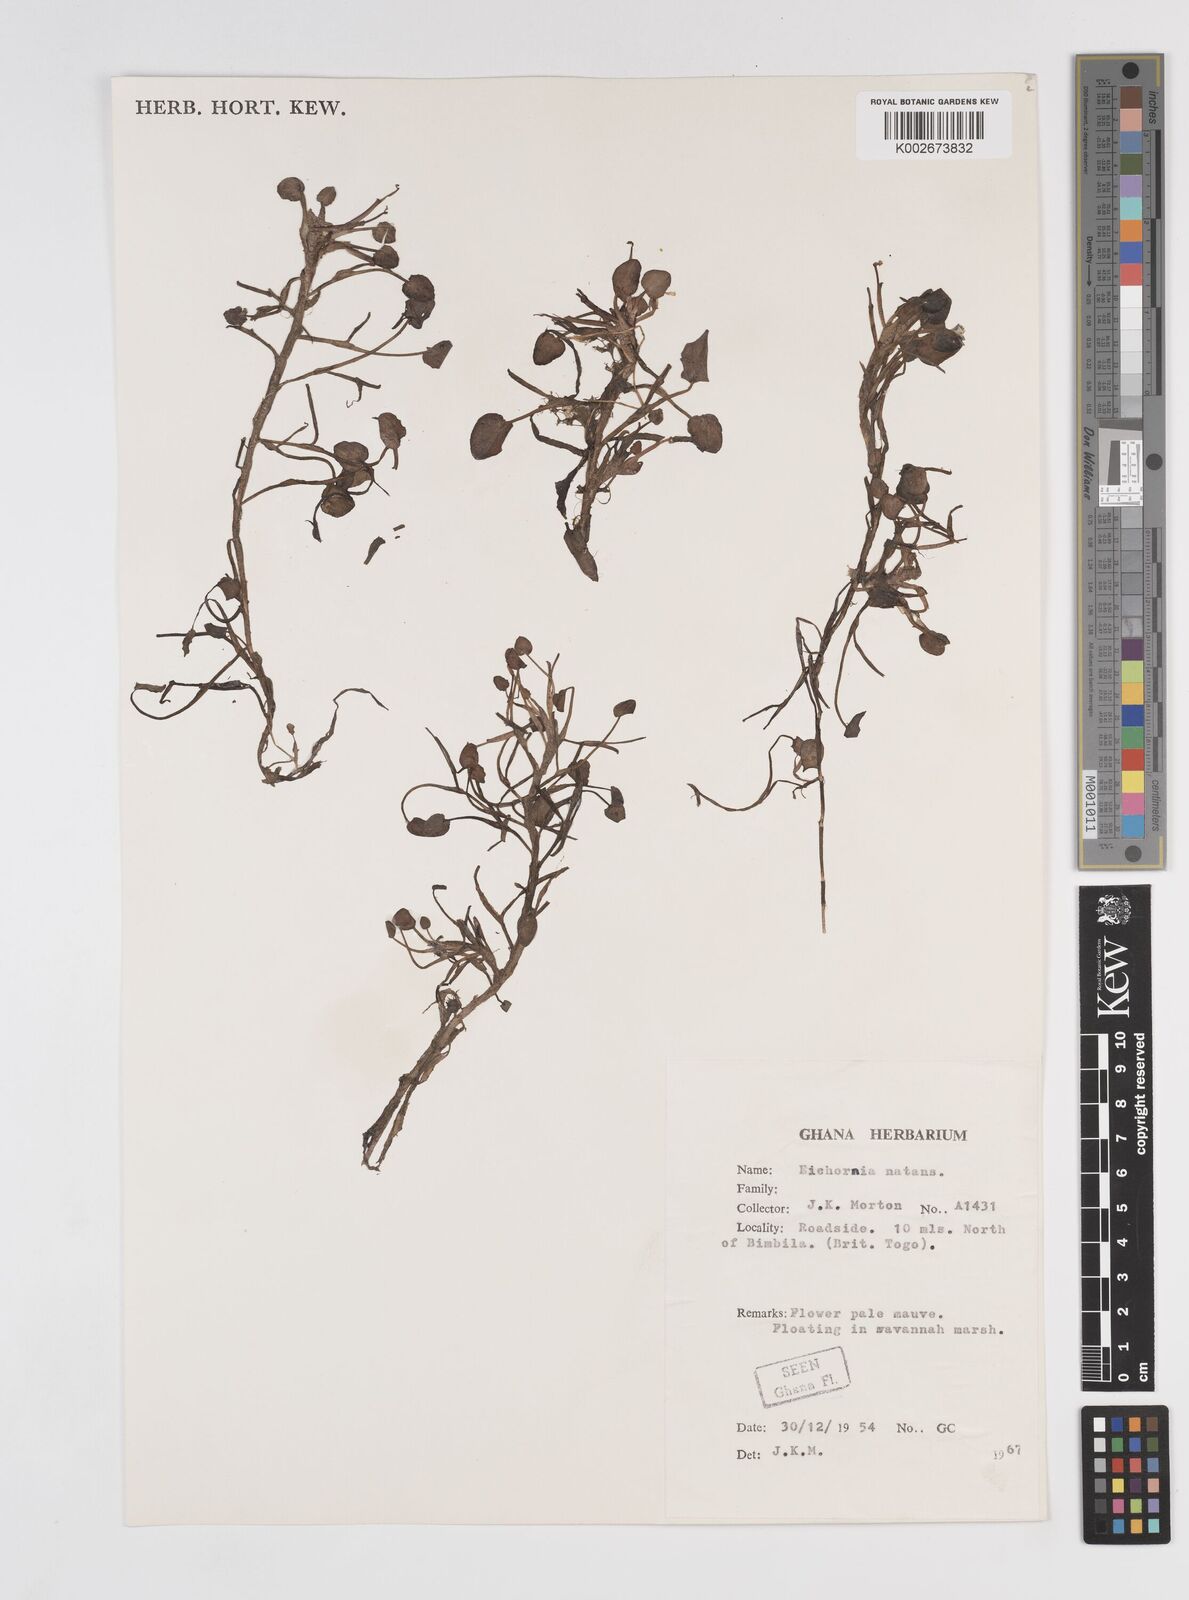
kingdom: Plantae
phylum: Tracheophyta
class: Liliopsida
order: Commelinales
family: Pontederiaceae
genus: Pontederia
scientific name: Pontederia diversifolia
